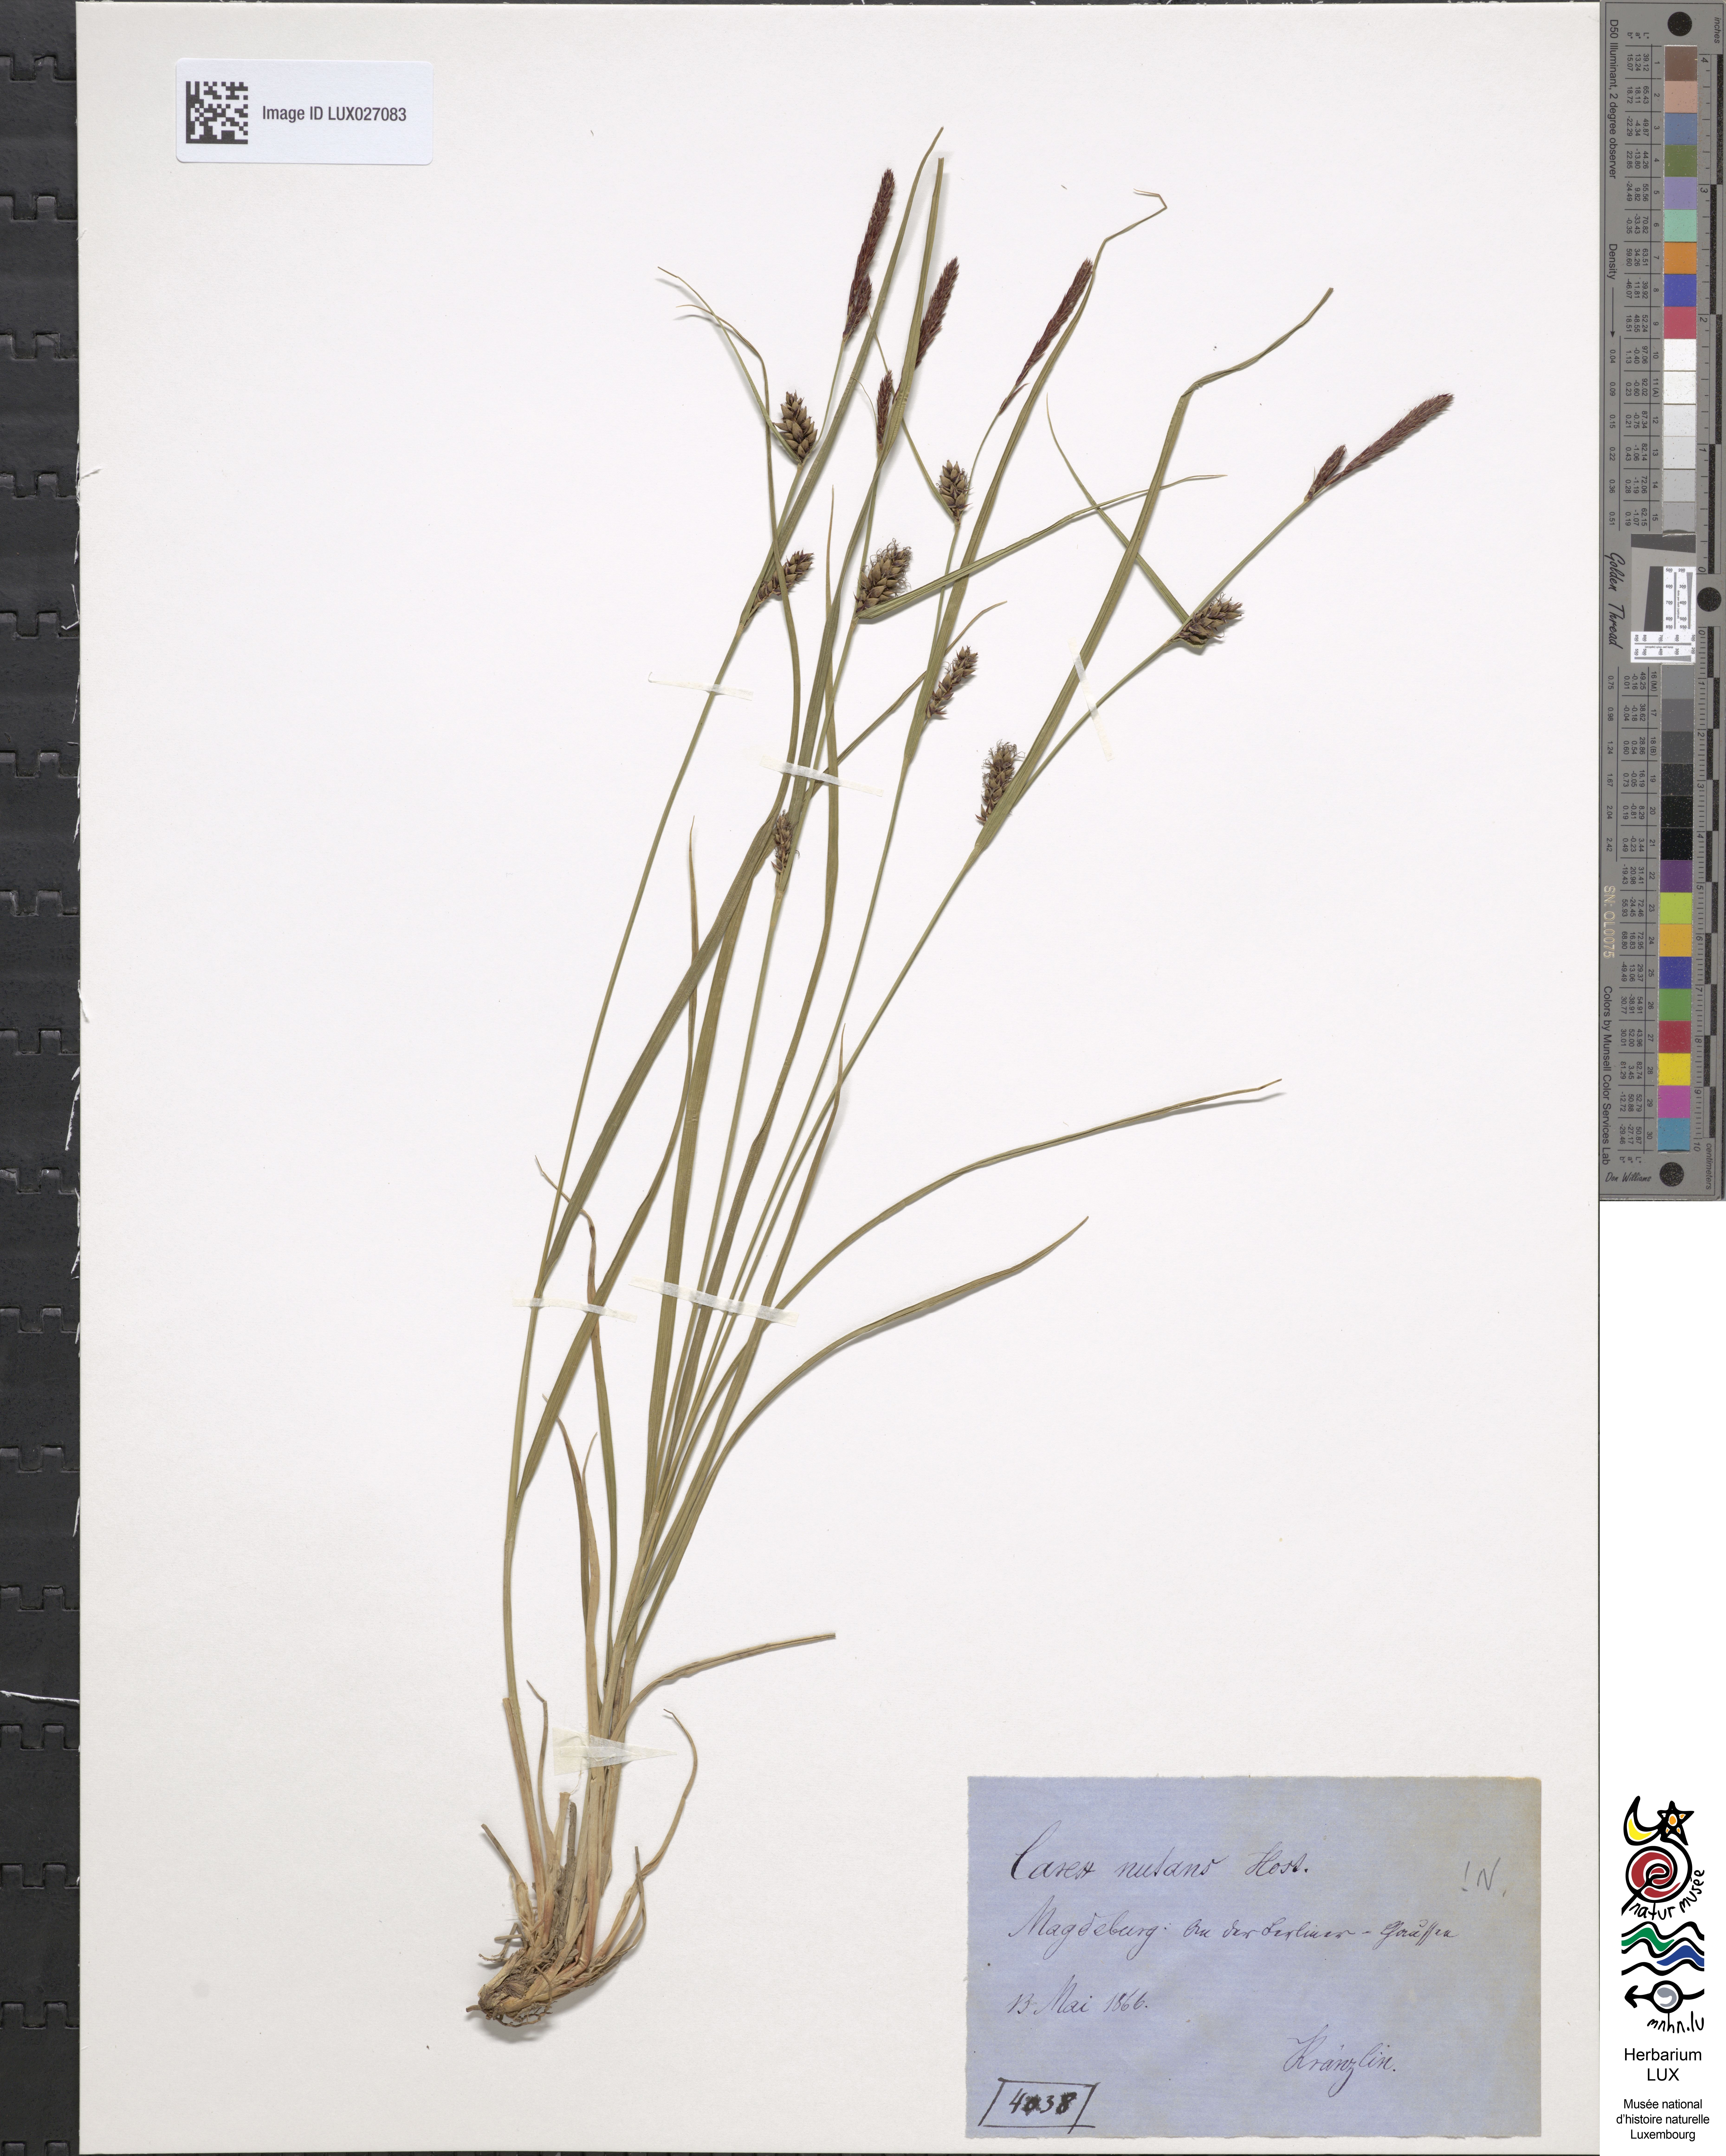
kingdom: Plantae
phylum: Tracheophyta
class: Liliopsida
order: Poales
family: Cyperaceae
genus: Carex
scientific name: Carex melanostachya
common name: Black-spiked sedge
